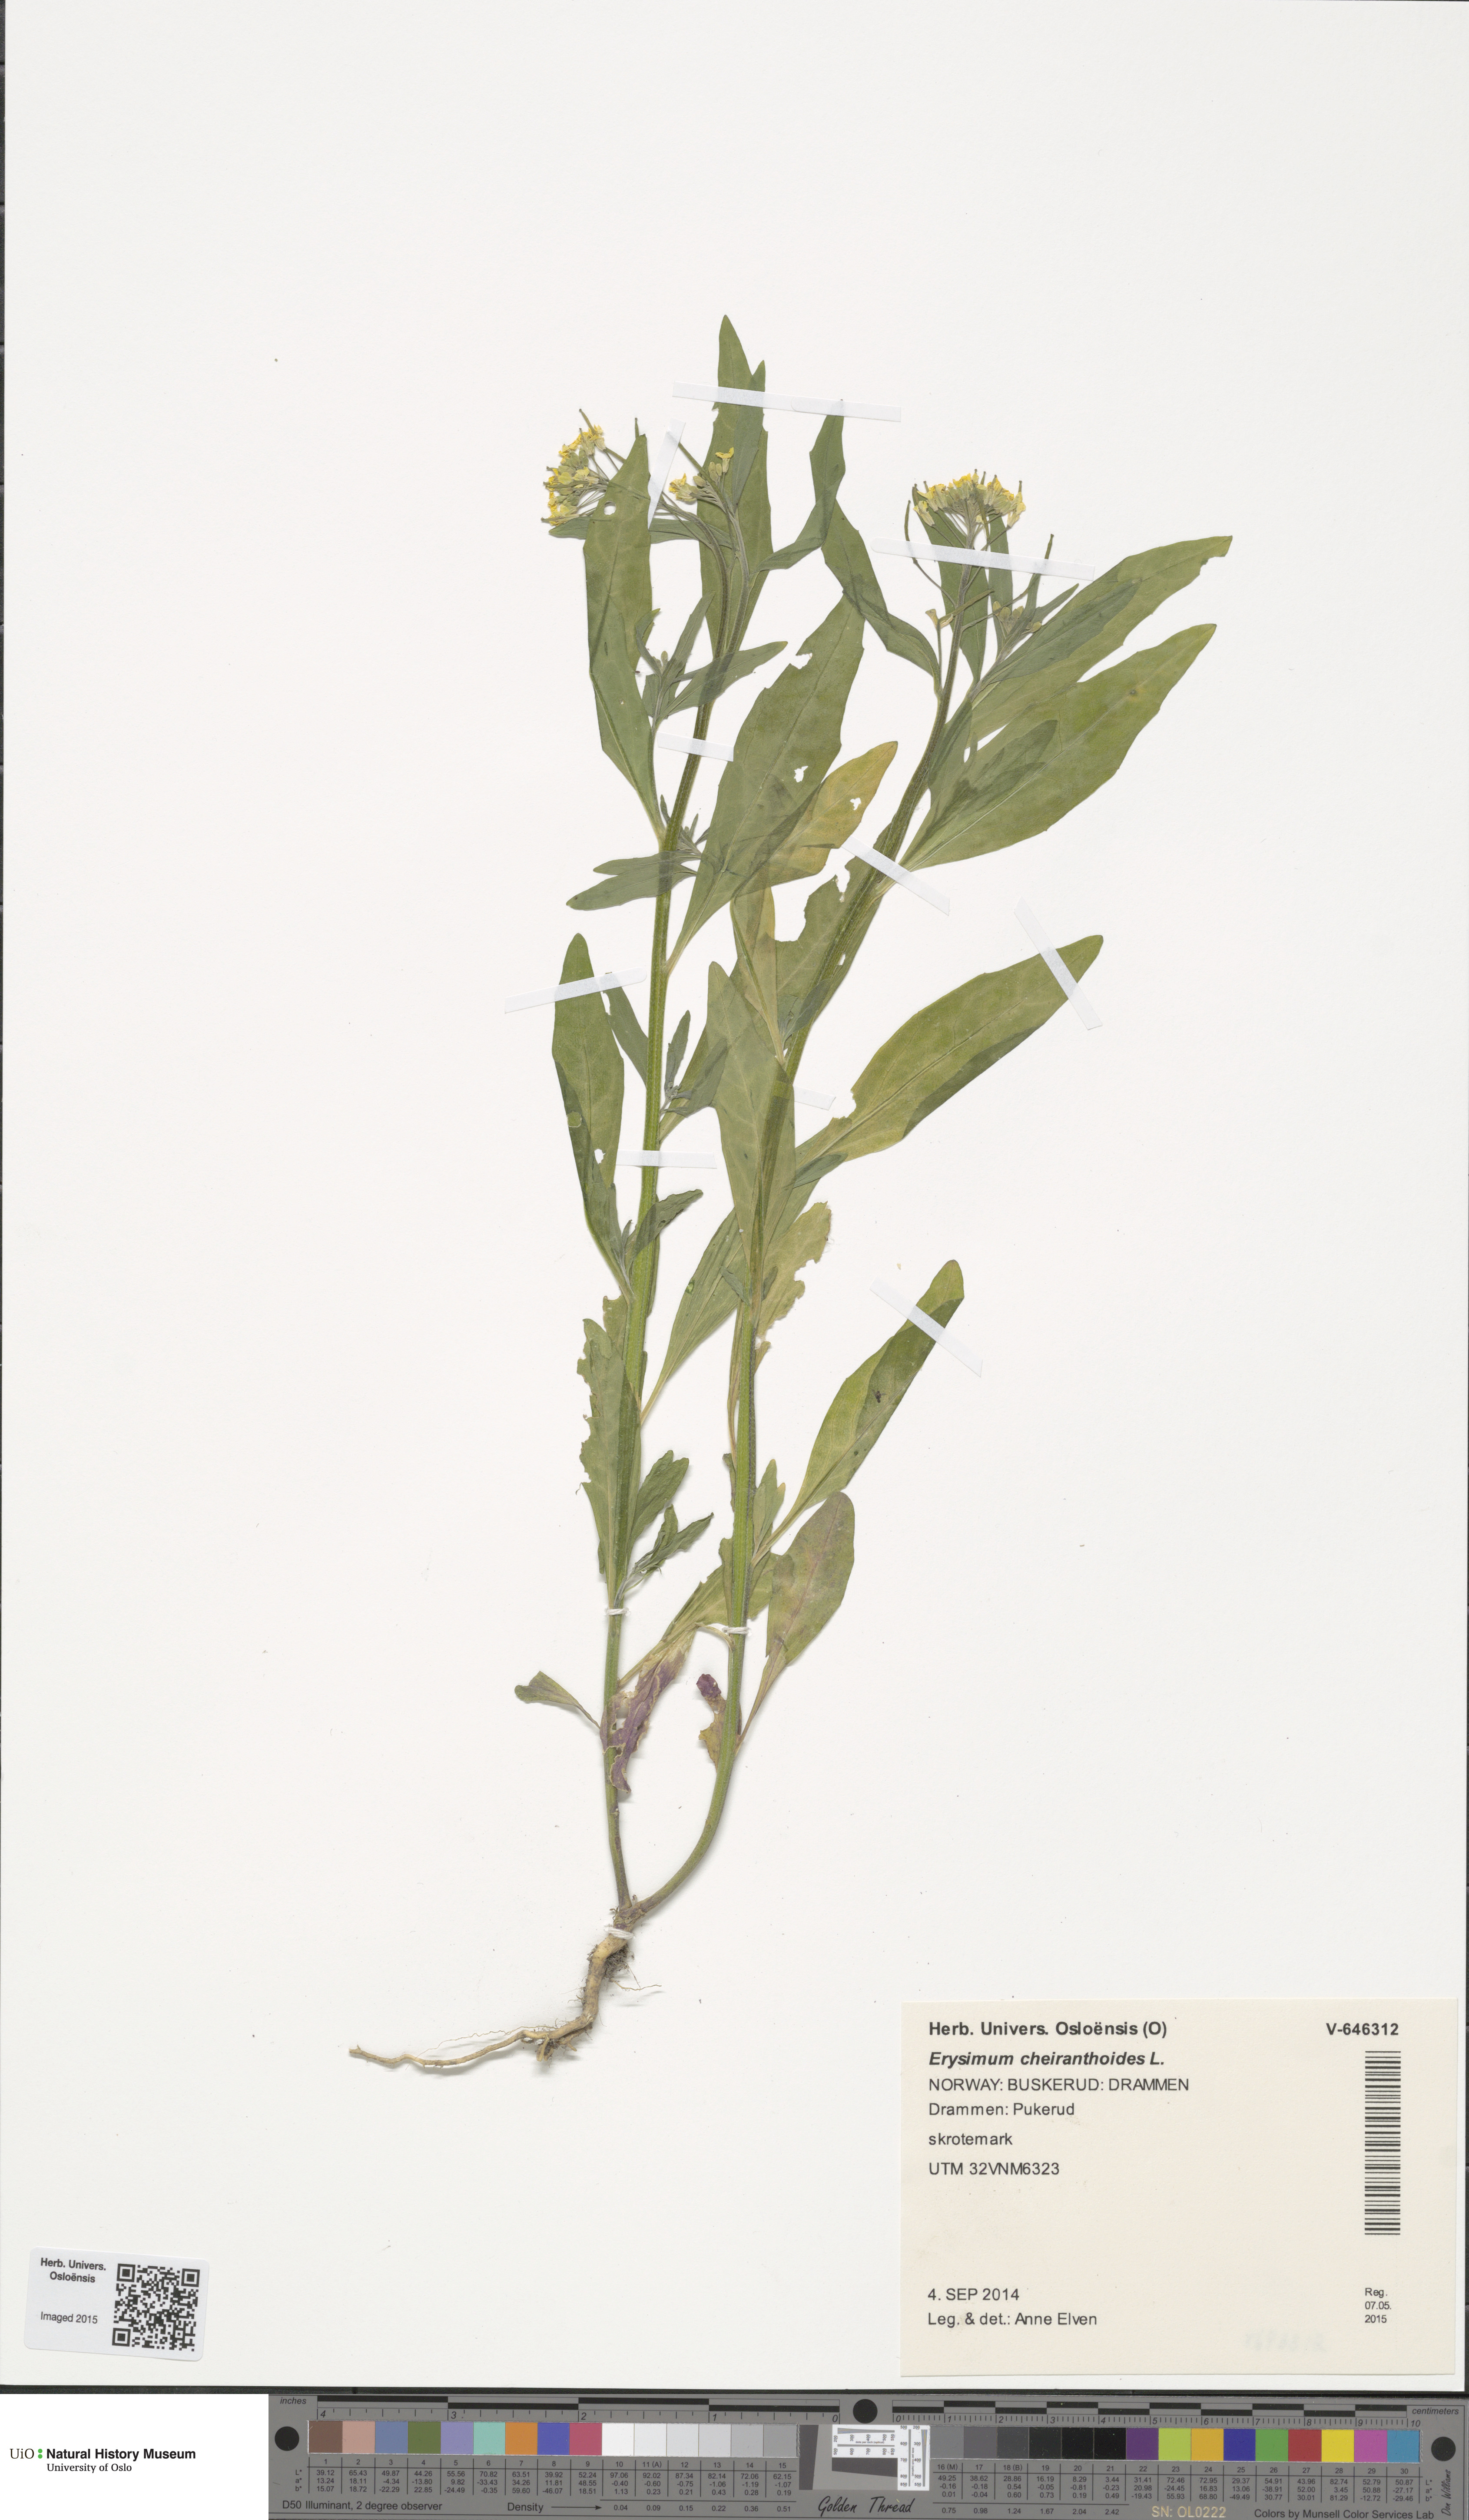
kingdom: Plantae
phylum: Tracheophyta
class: Magnoliopsida
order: Brassicales
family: Brassicaceae
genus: Erysimum
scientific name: Erysimum cheiranthoides
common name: Treacle mustard
